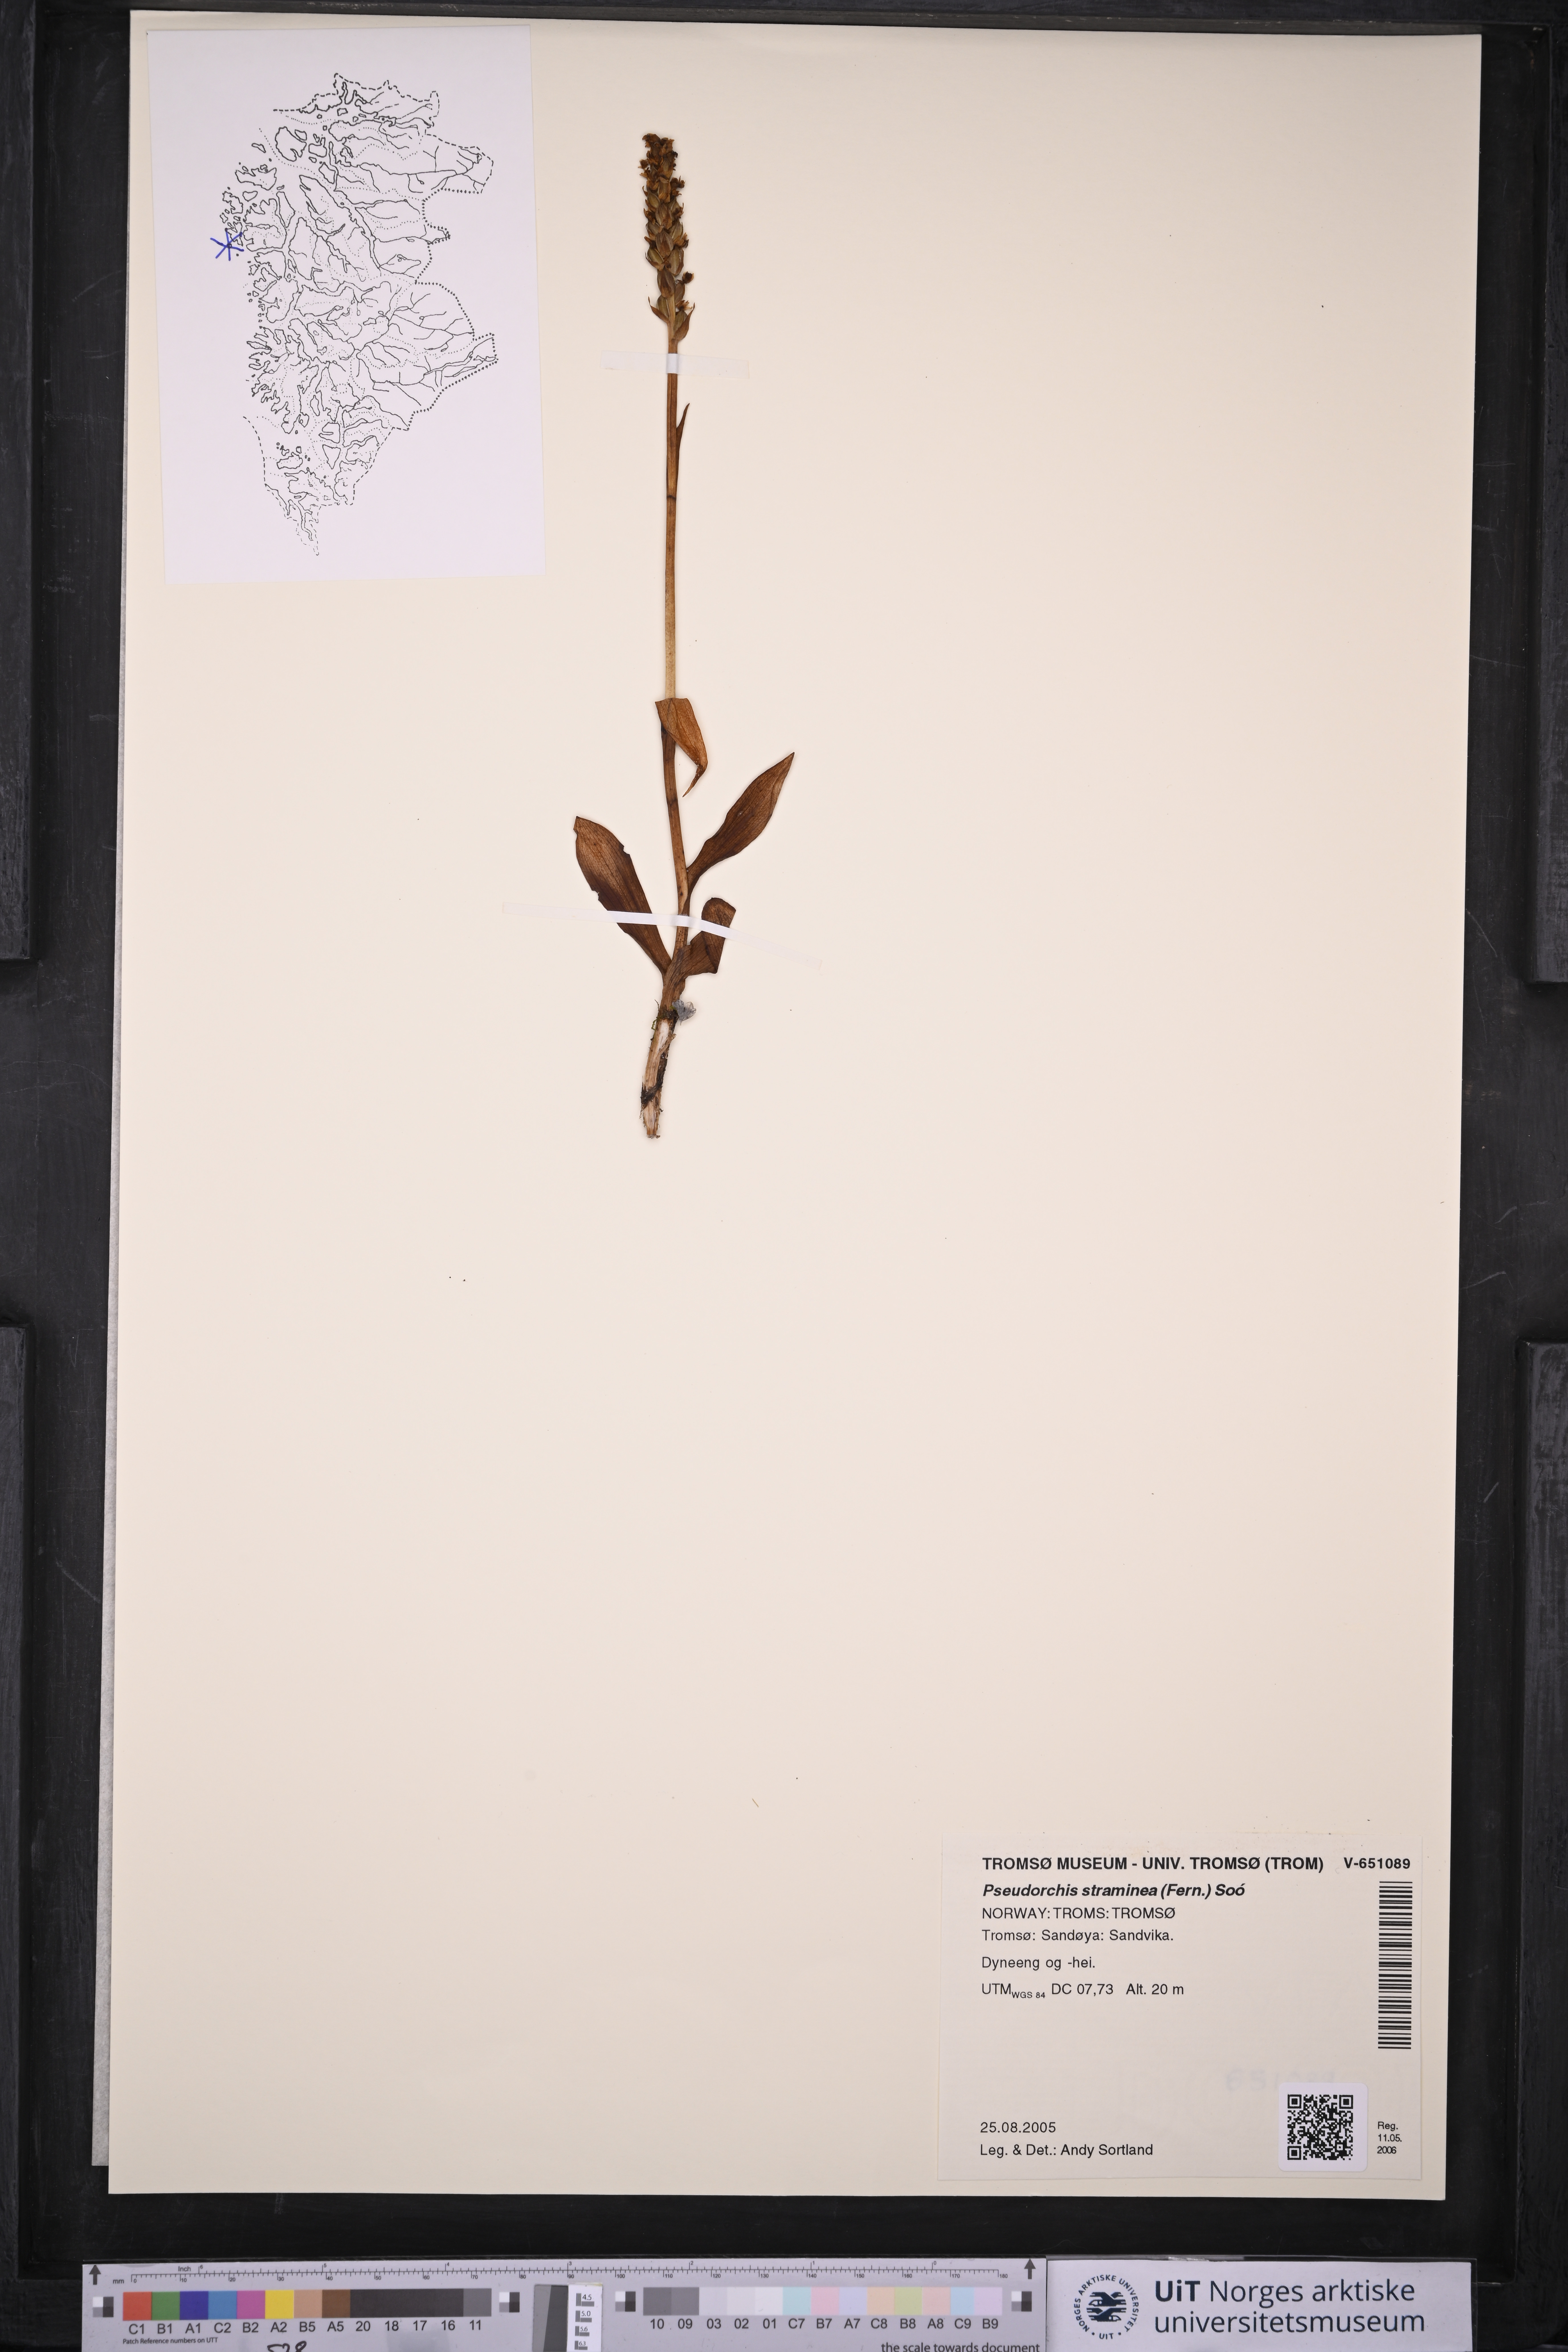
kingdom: Plantae
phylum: Tracheophyta
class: Liliopsida
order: Asparagales
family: Orchidaceae
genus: Pseudorchis
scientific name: Pseudorchis straminea
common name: Vanilla-scented bog orchid
